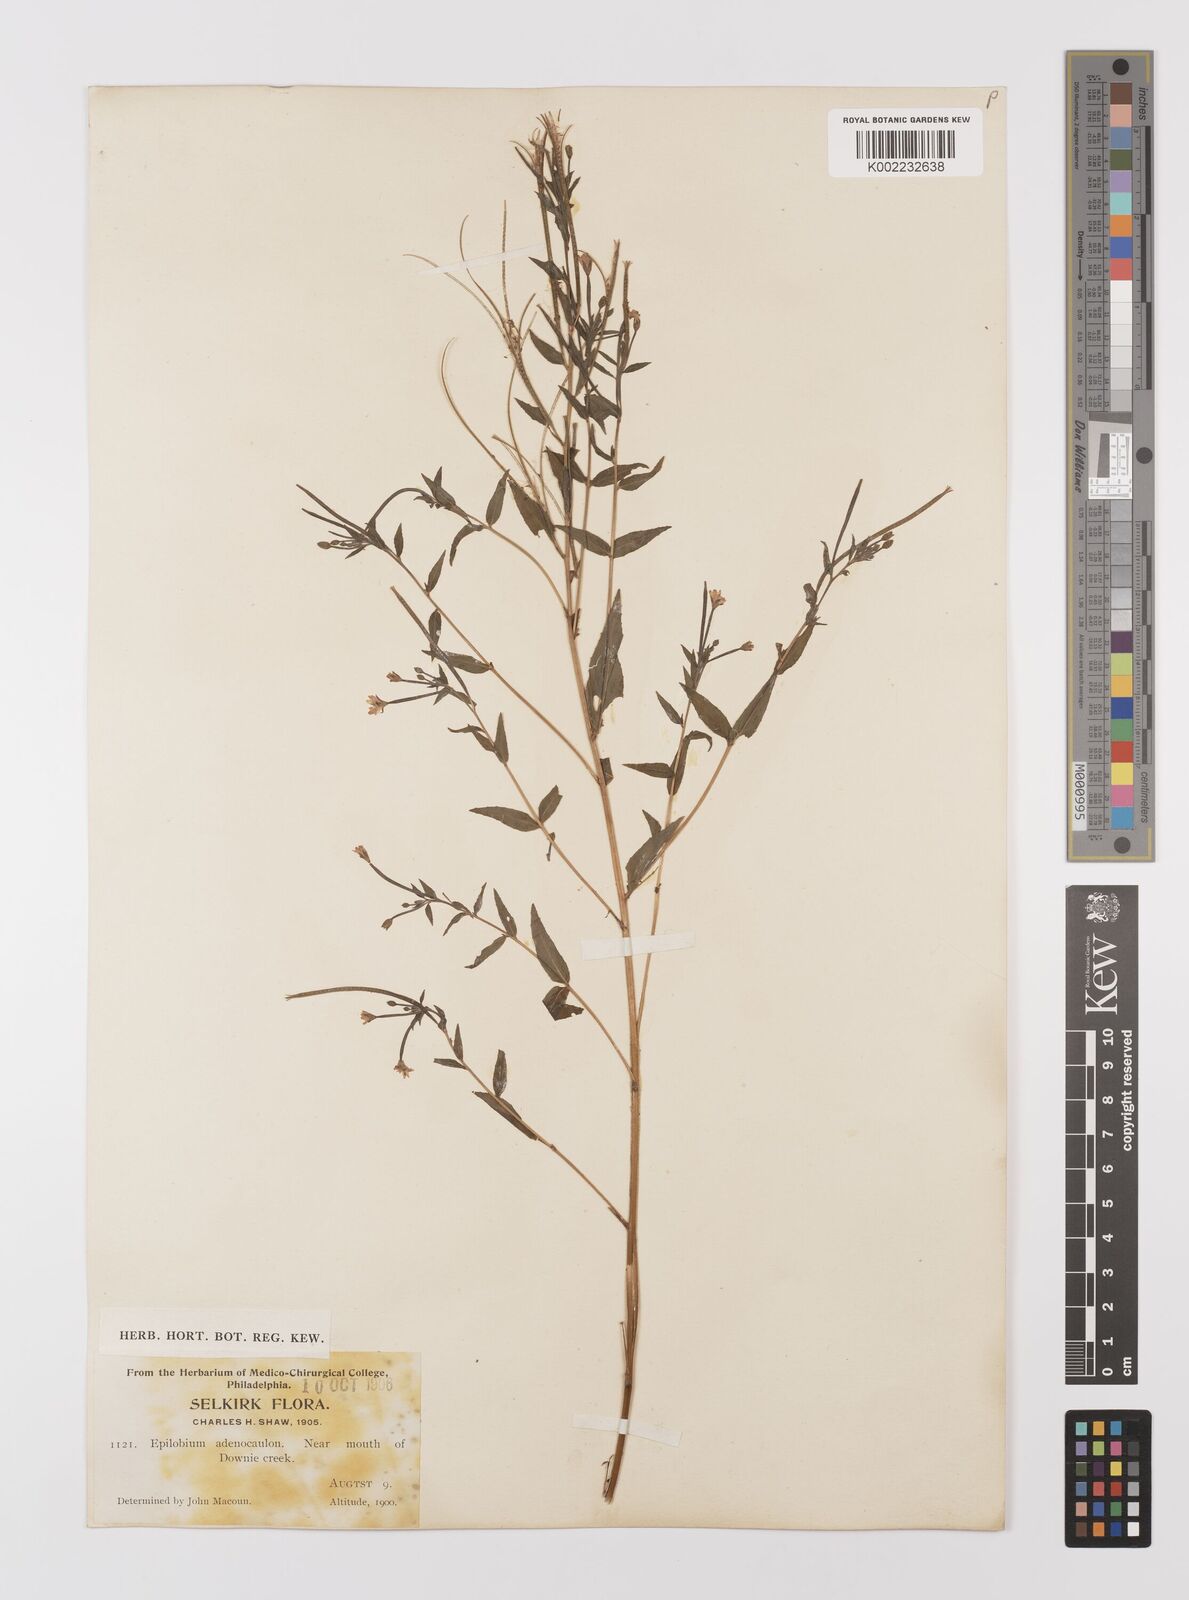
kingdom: Plantae
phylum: Tracheophyta
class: Magnoliopsida
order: Myrtales
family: Onagraceae
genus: Epilobium
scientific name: Epilobium ciliatum
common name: American willowherb
